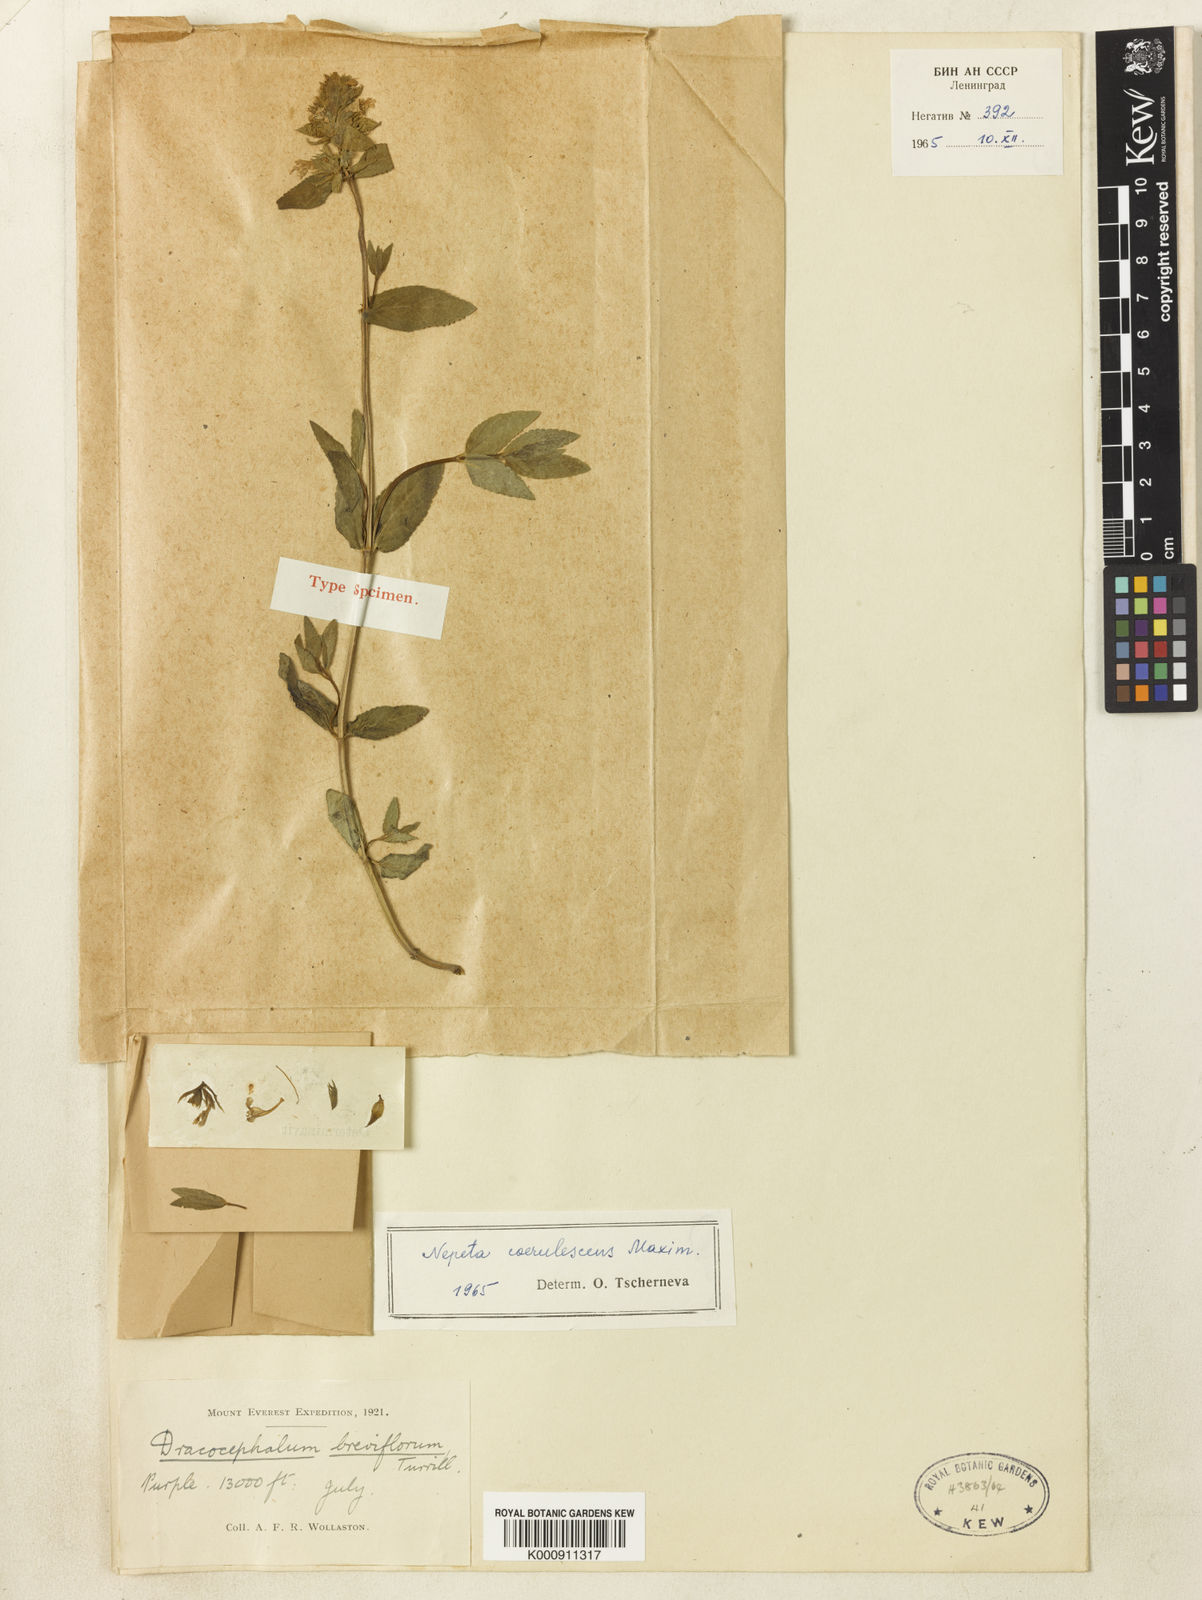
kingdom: Plantae
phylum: Tracheophyta
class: Magnoliopsida
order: Lamiales
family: Lamiaceae
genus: Dracocephalum
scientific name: Dracocephalum breviflorum
